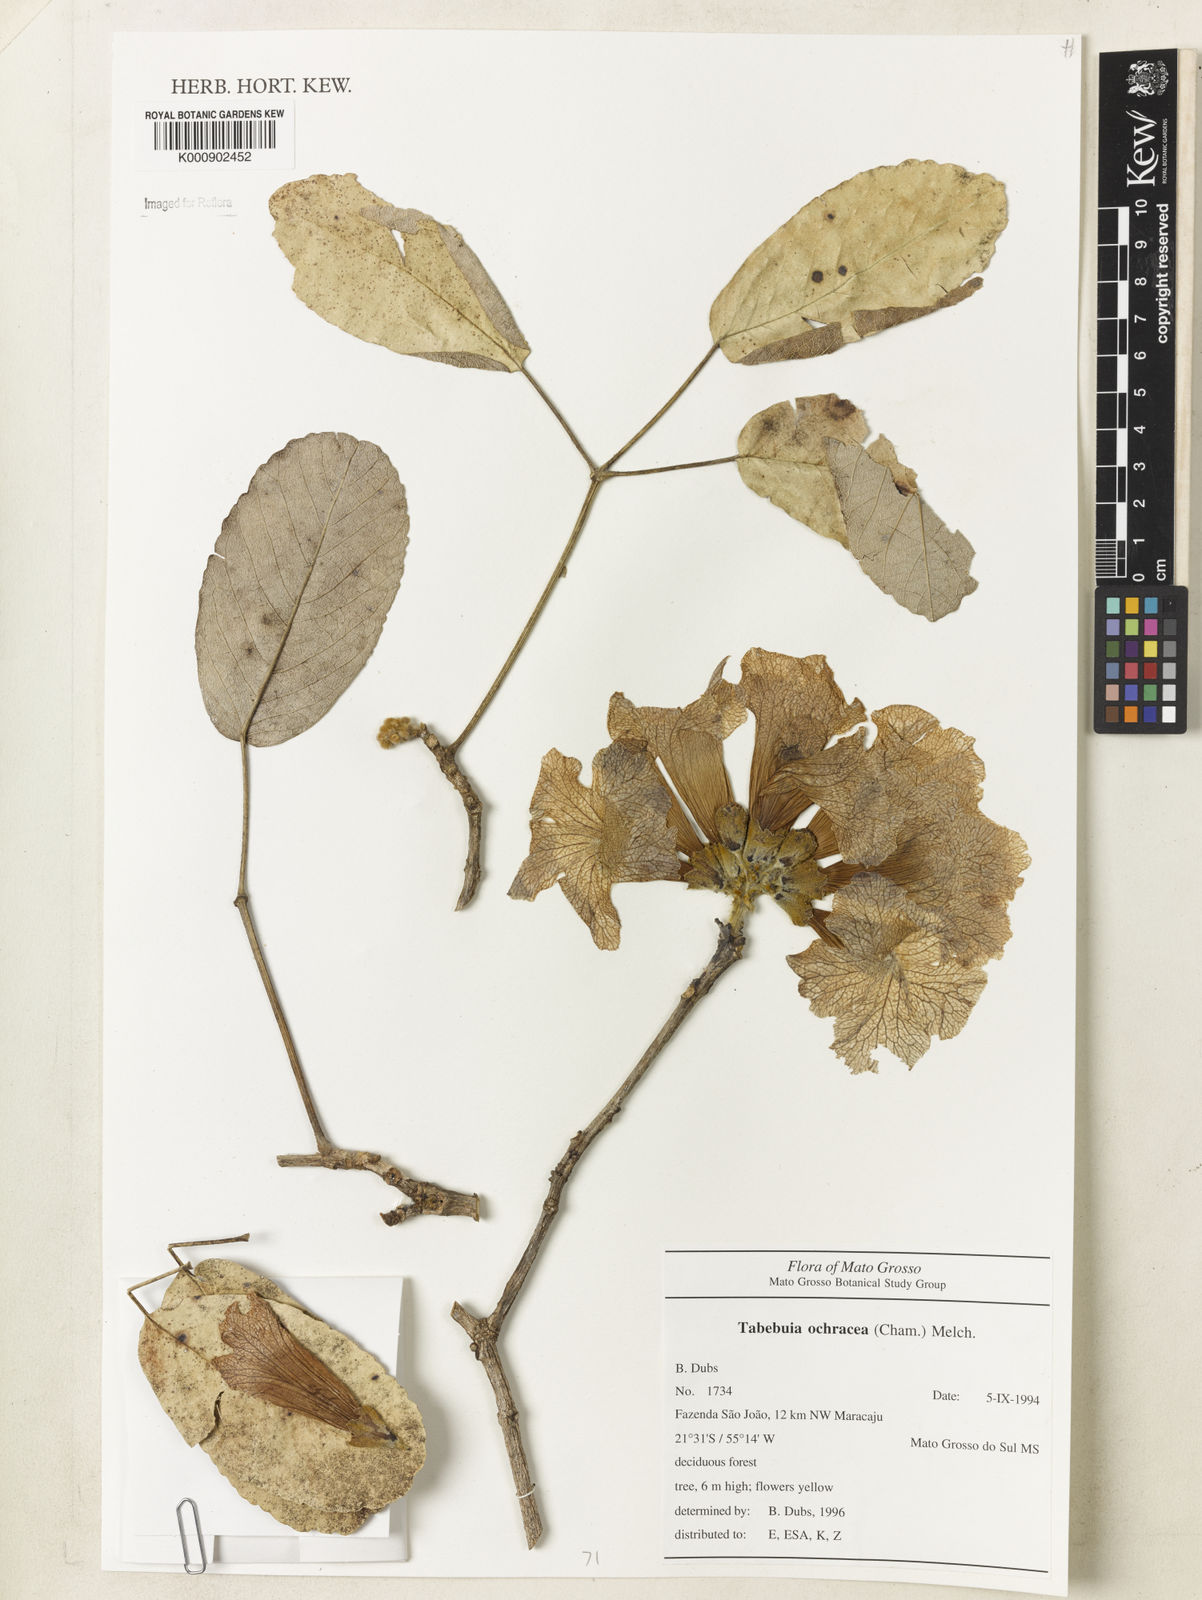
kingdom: Plantae
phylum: Tracheophyta
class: Magnoliopsida
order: Lamiales
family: Bignoniaceae
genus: Handroanthus
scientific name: Handroanthus ochraceus
